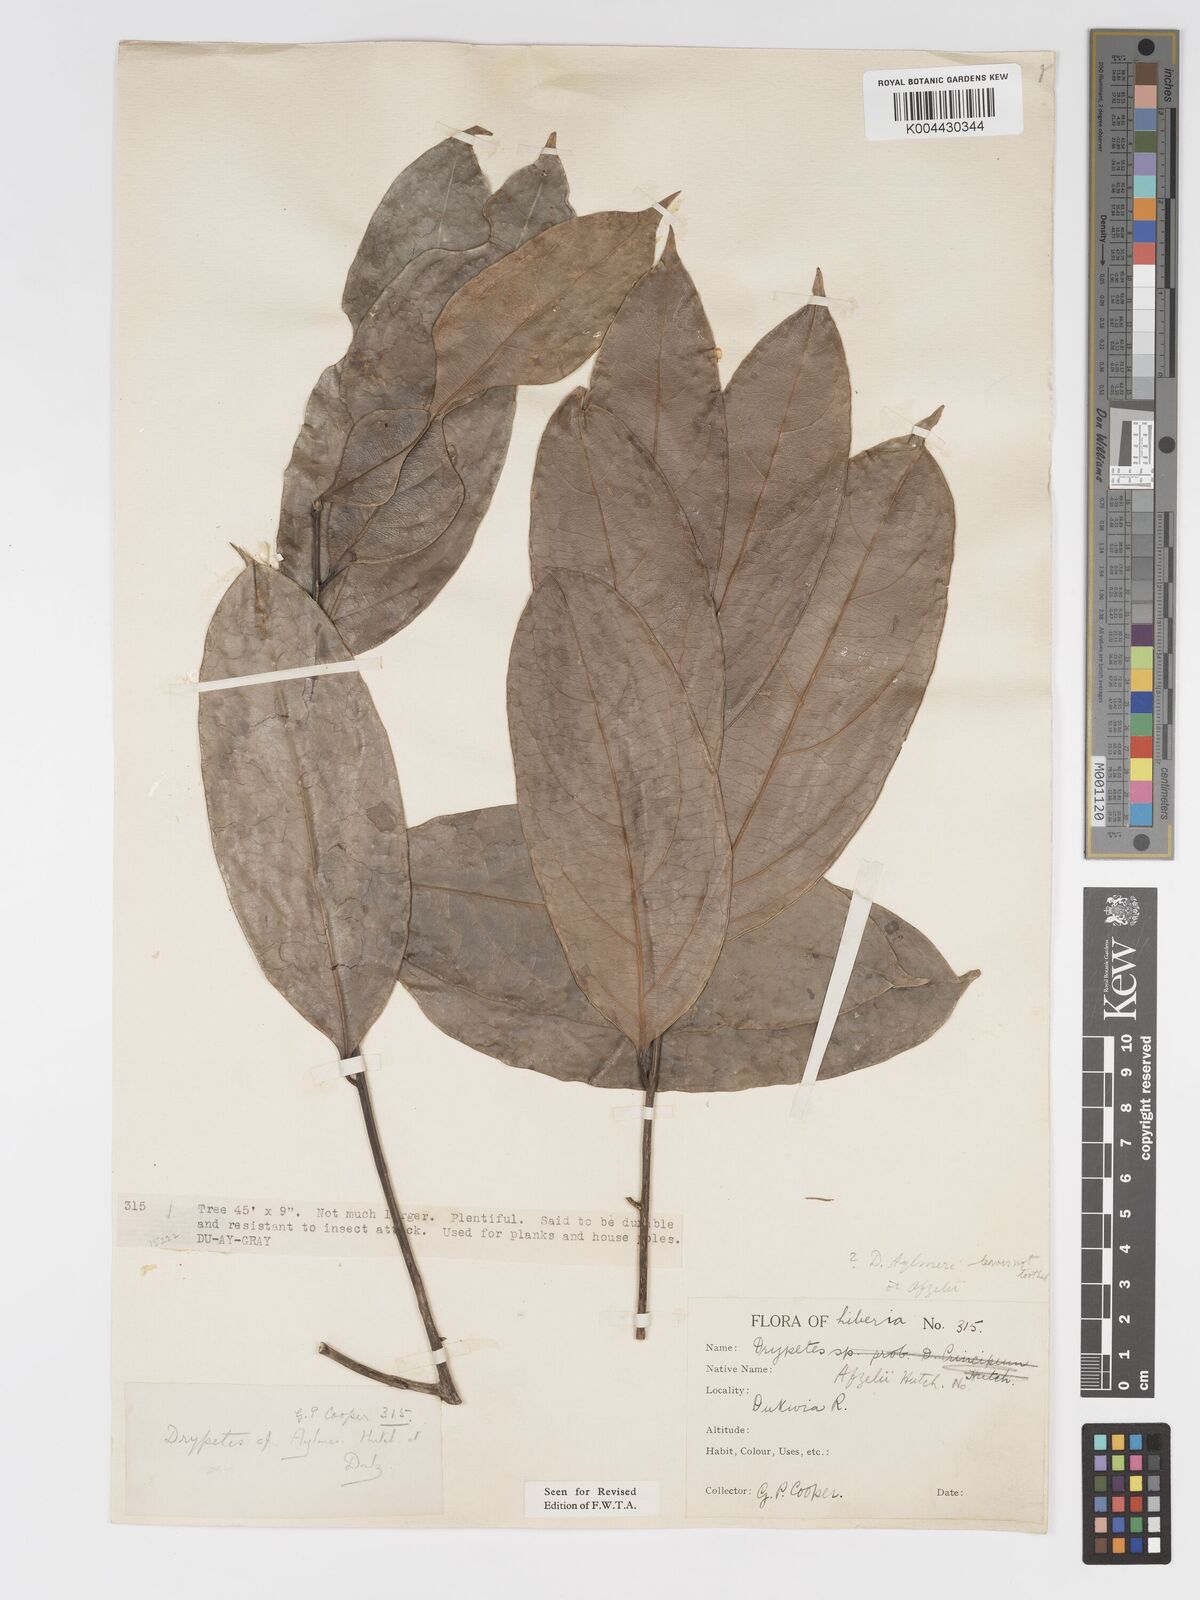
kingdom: Plantae
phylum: Tracheophyta
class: Magnoliopsida
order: Malpighiales
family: Putranjivaceae
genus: Drypetes
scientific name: Drypetes aylmeri
